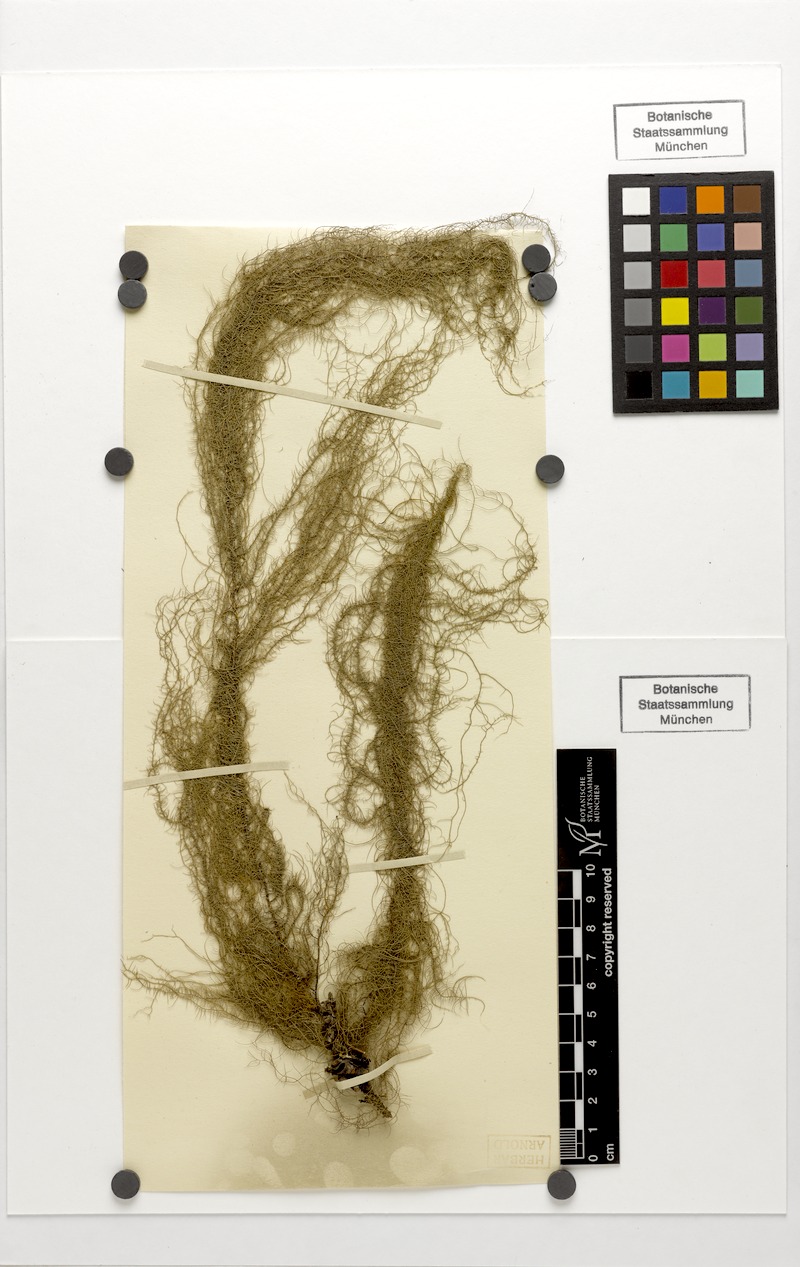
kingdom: Fungi
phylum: Ascomycota
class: Lecanoromycetes
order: Lecanorales
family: Parmeliaceae
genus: Usnea
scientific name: Usnea dasopoga
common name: Fishbone beard lichen
